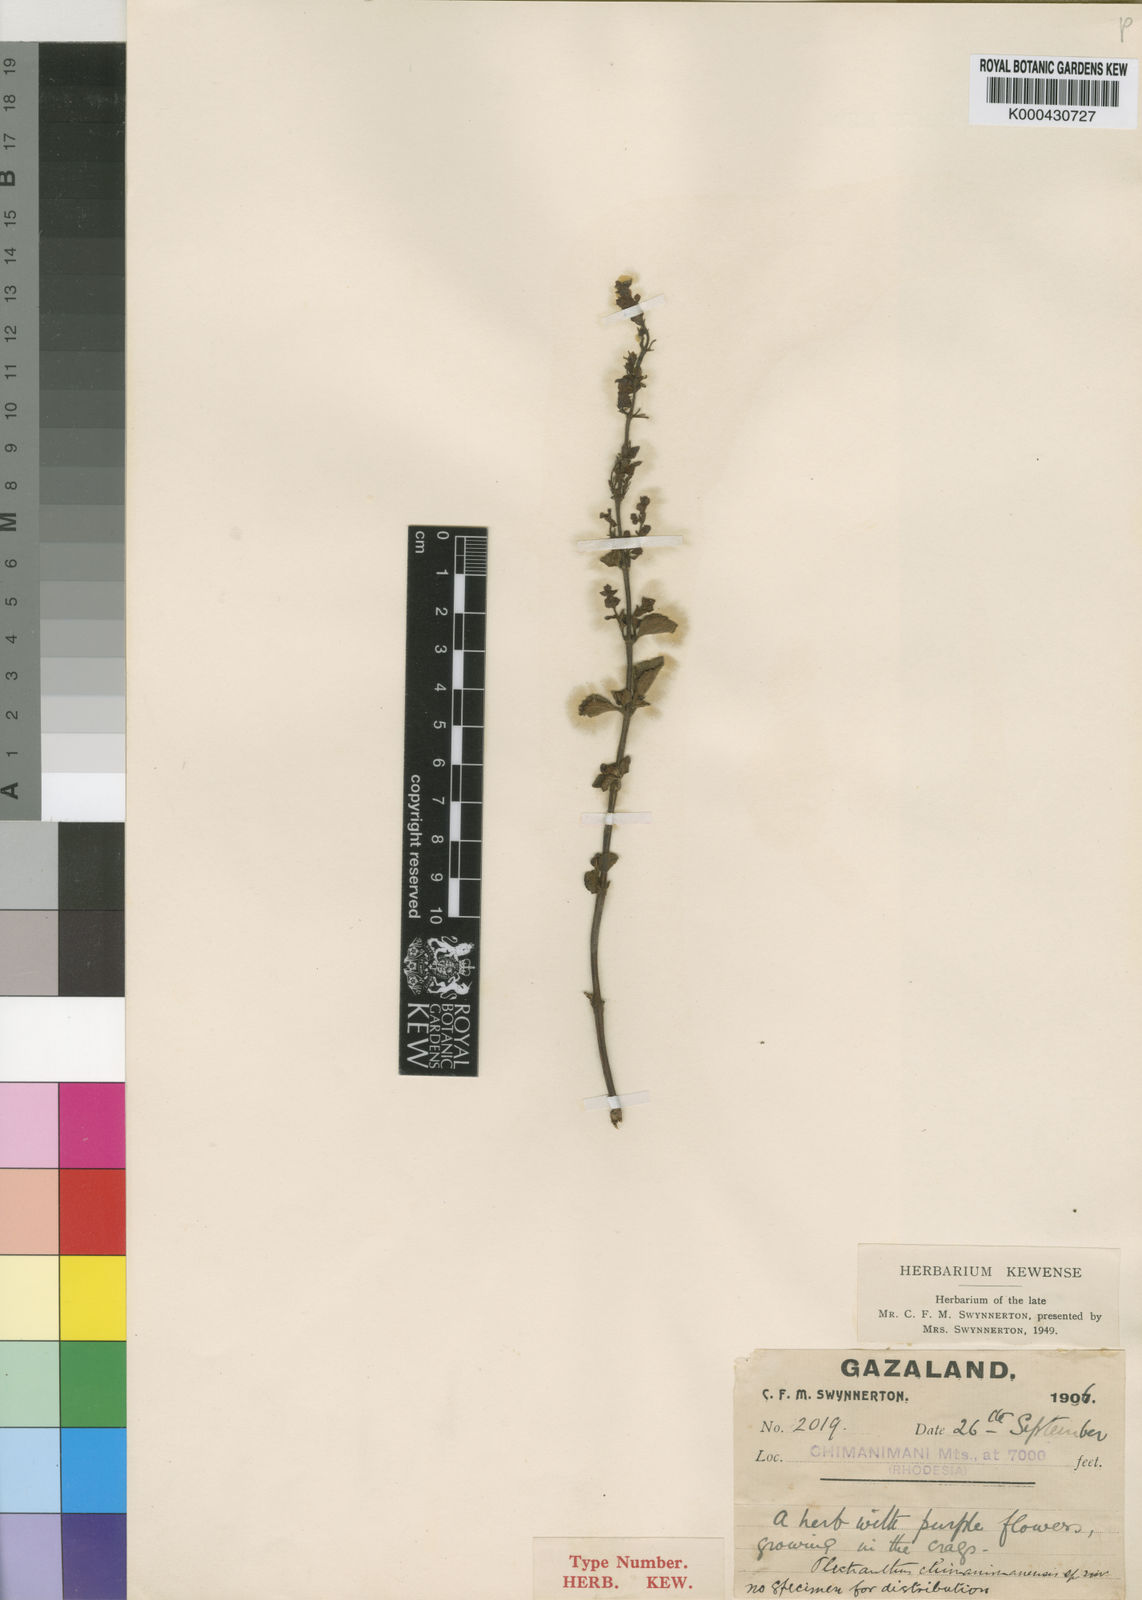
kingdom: Plantae
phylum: Tracheophyta
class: Magnoliopsida
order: Lamiales
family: Lamiaceae
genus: Plectranthus
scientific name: Plectranthus chimanimanensis
